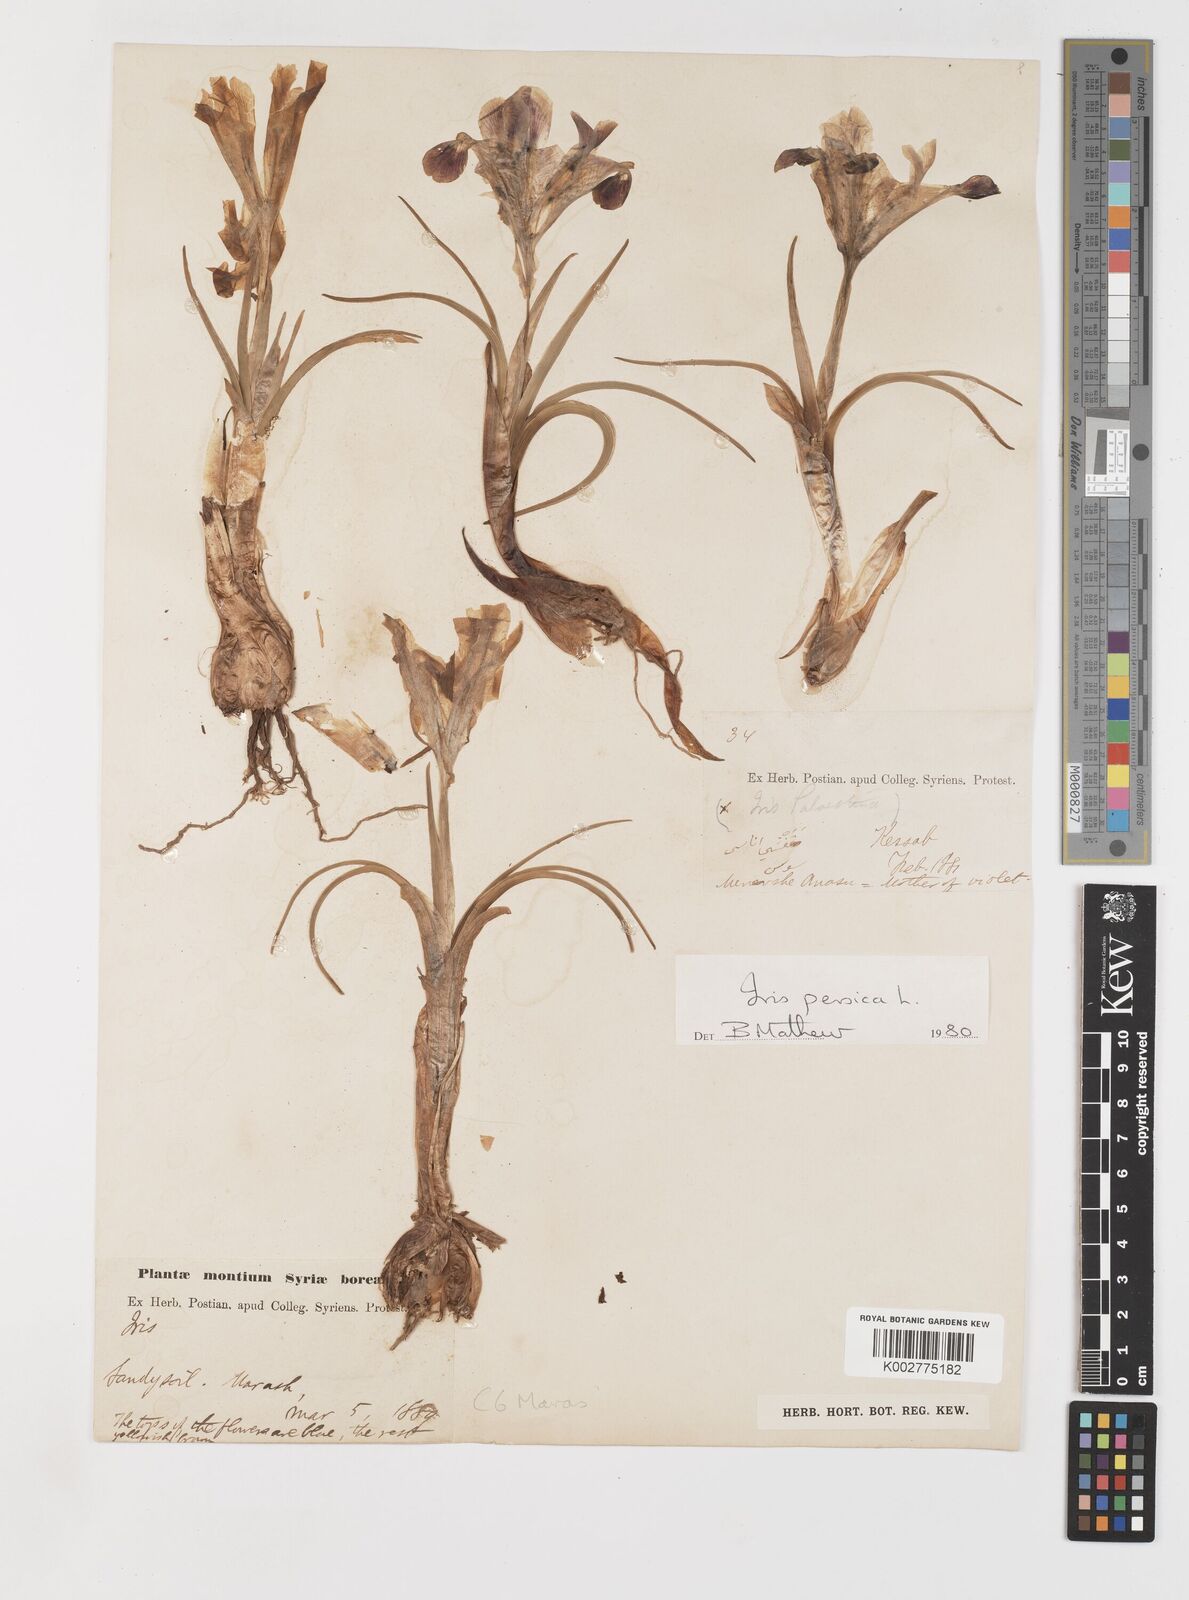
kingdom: Plantae
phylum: Tracheophyta
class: Liliopsida
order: Asparagales
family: Iridaceae
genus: Iris
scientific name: Iris persica
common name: Persian iris
